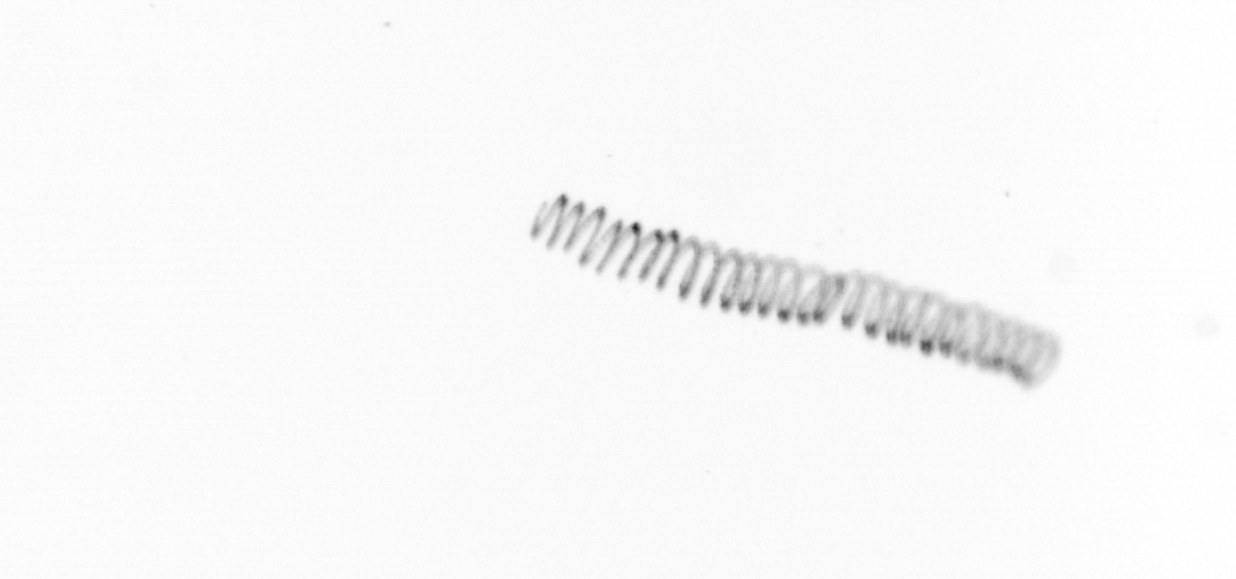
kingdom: Chromista
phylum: Ochrophyta
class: Bacillariophyceae
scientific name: Bacillariophyceae
